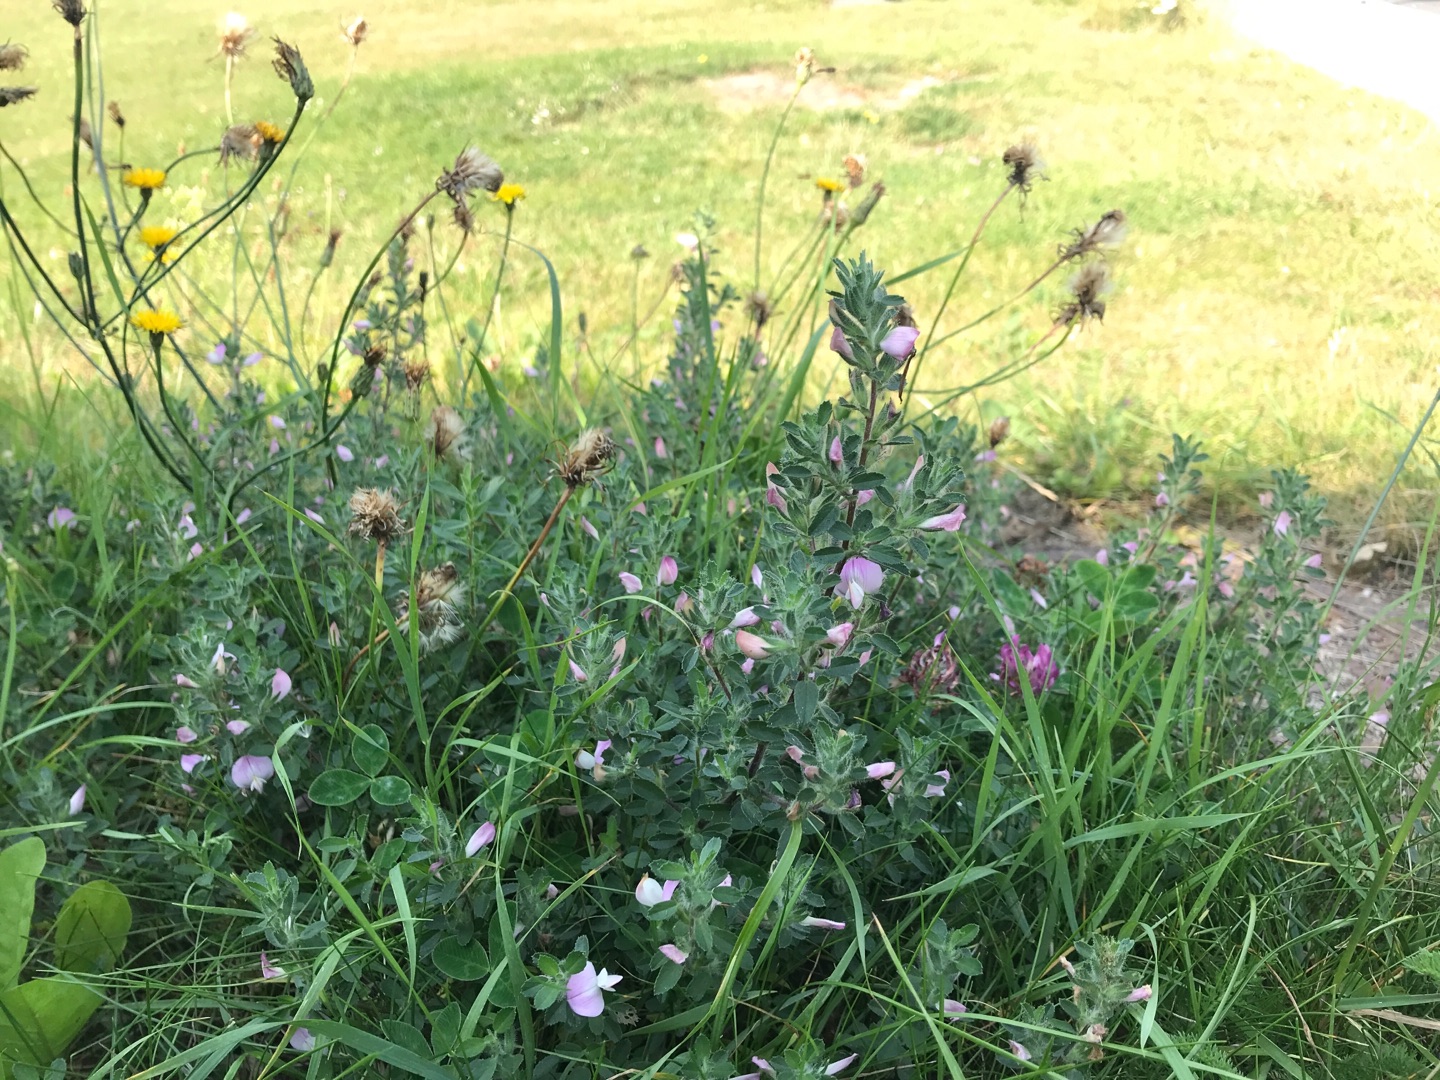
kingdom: Plantae
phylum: Tracheophyta
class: Magnoliopsida
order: Fabales
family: Fabaceae
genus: Ononis
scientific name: Ononis spinosa
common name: Mark-krageklo
